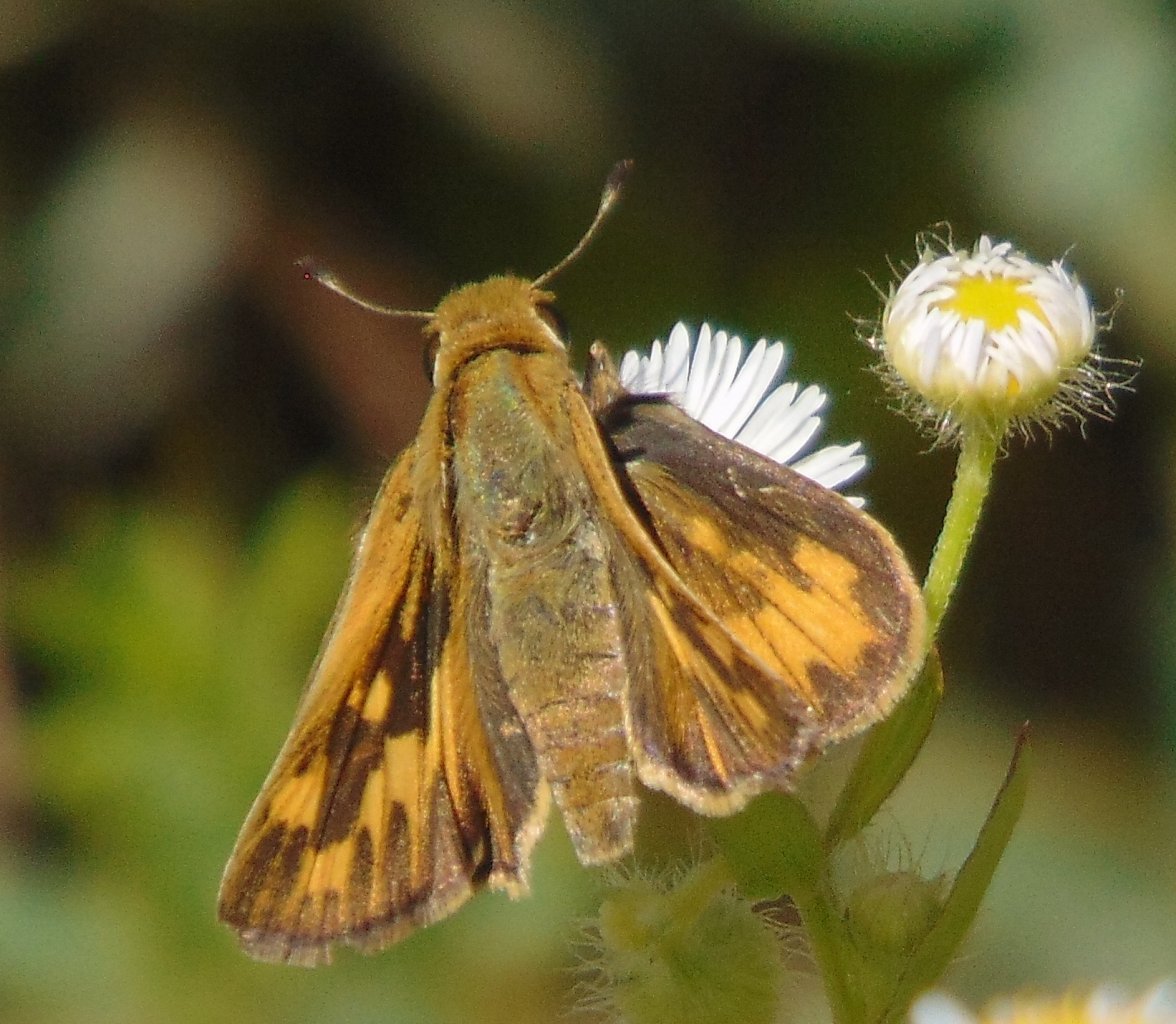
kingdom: Animalia
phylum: Arthropoda
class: Insecta
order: Lepidoptera
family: Hesperiidae
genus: Hylephila
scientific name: Hylephila phyleus
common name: Fiery Skipper
